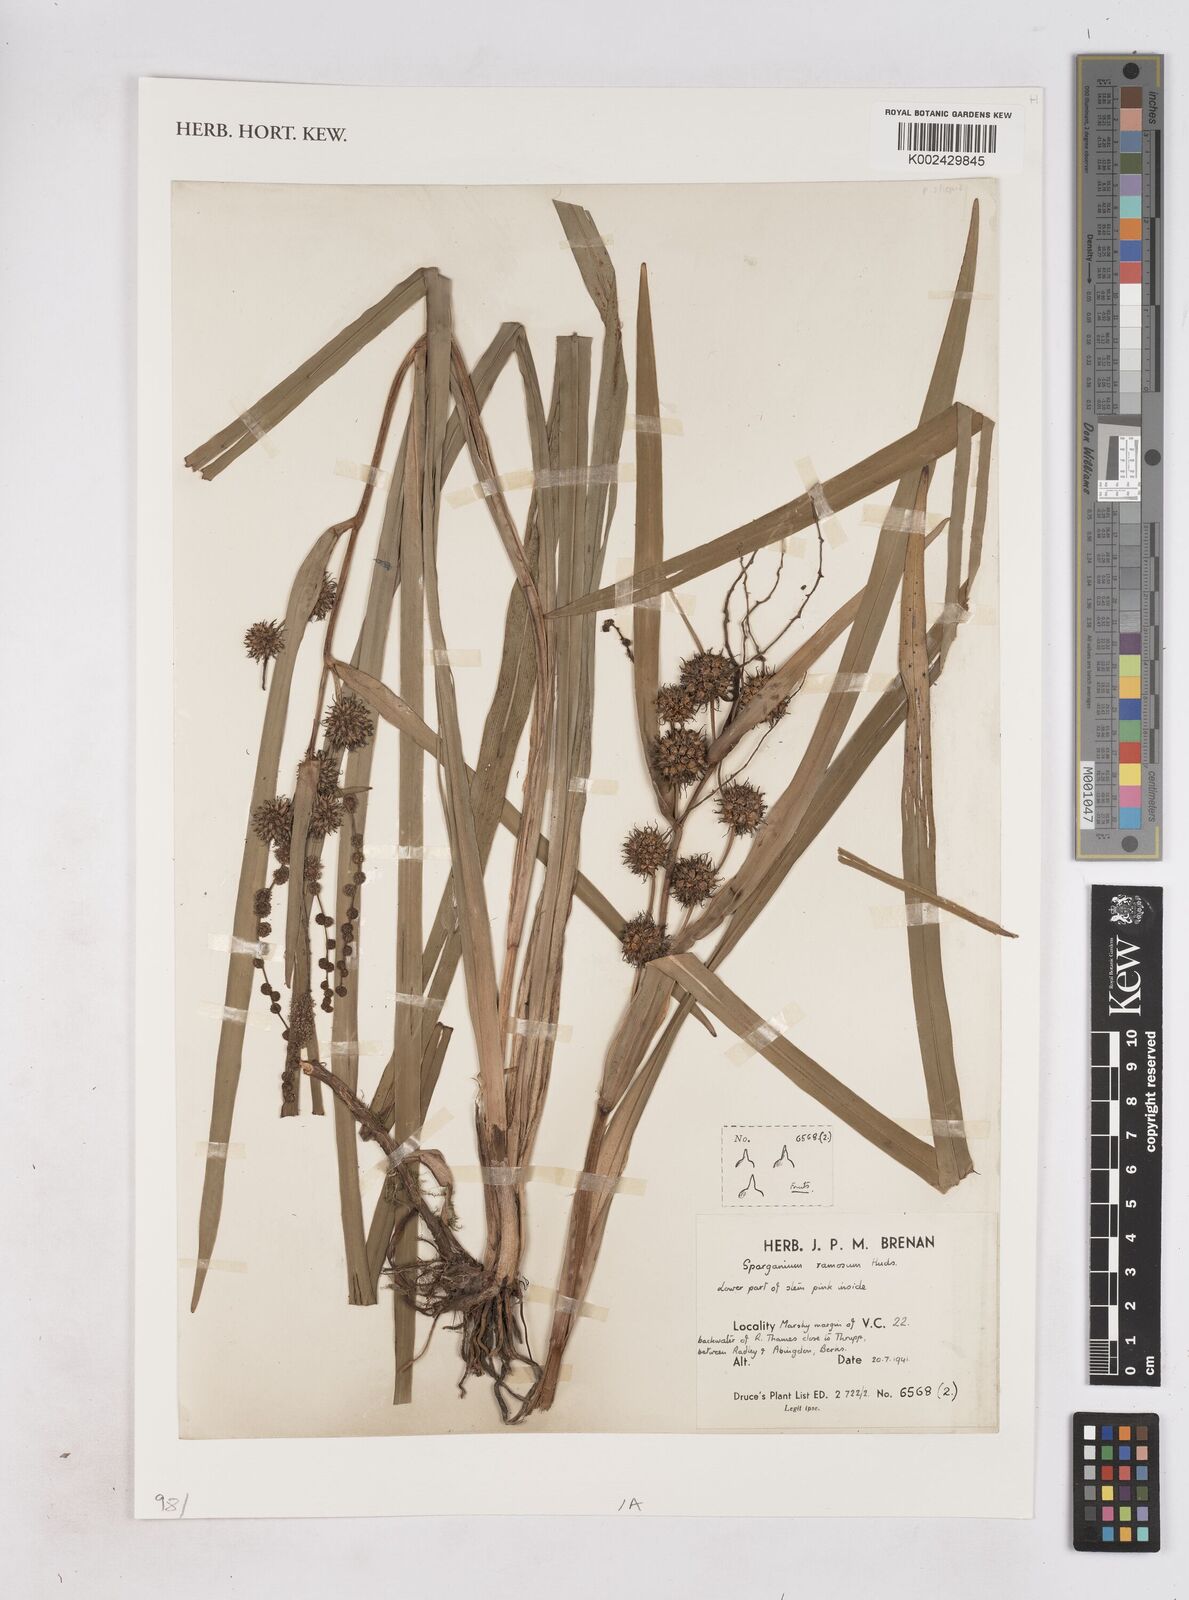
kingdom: Plantae
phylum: Tracheophyta
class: Liliopsida
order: Poales
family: Typhaceae
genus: Sparganium
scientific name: Sparganium erectum
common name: Branched bur-reed
